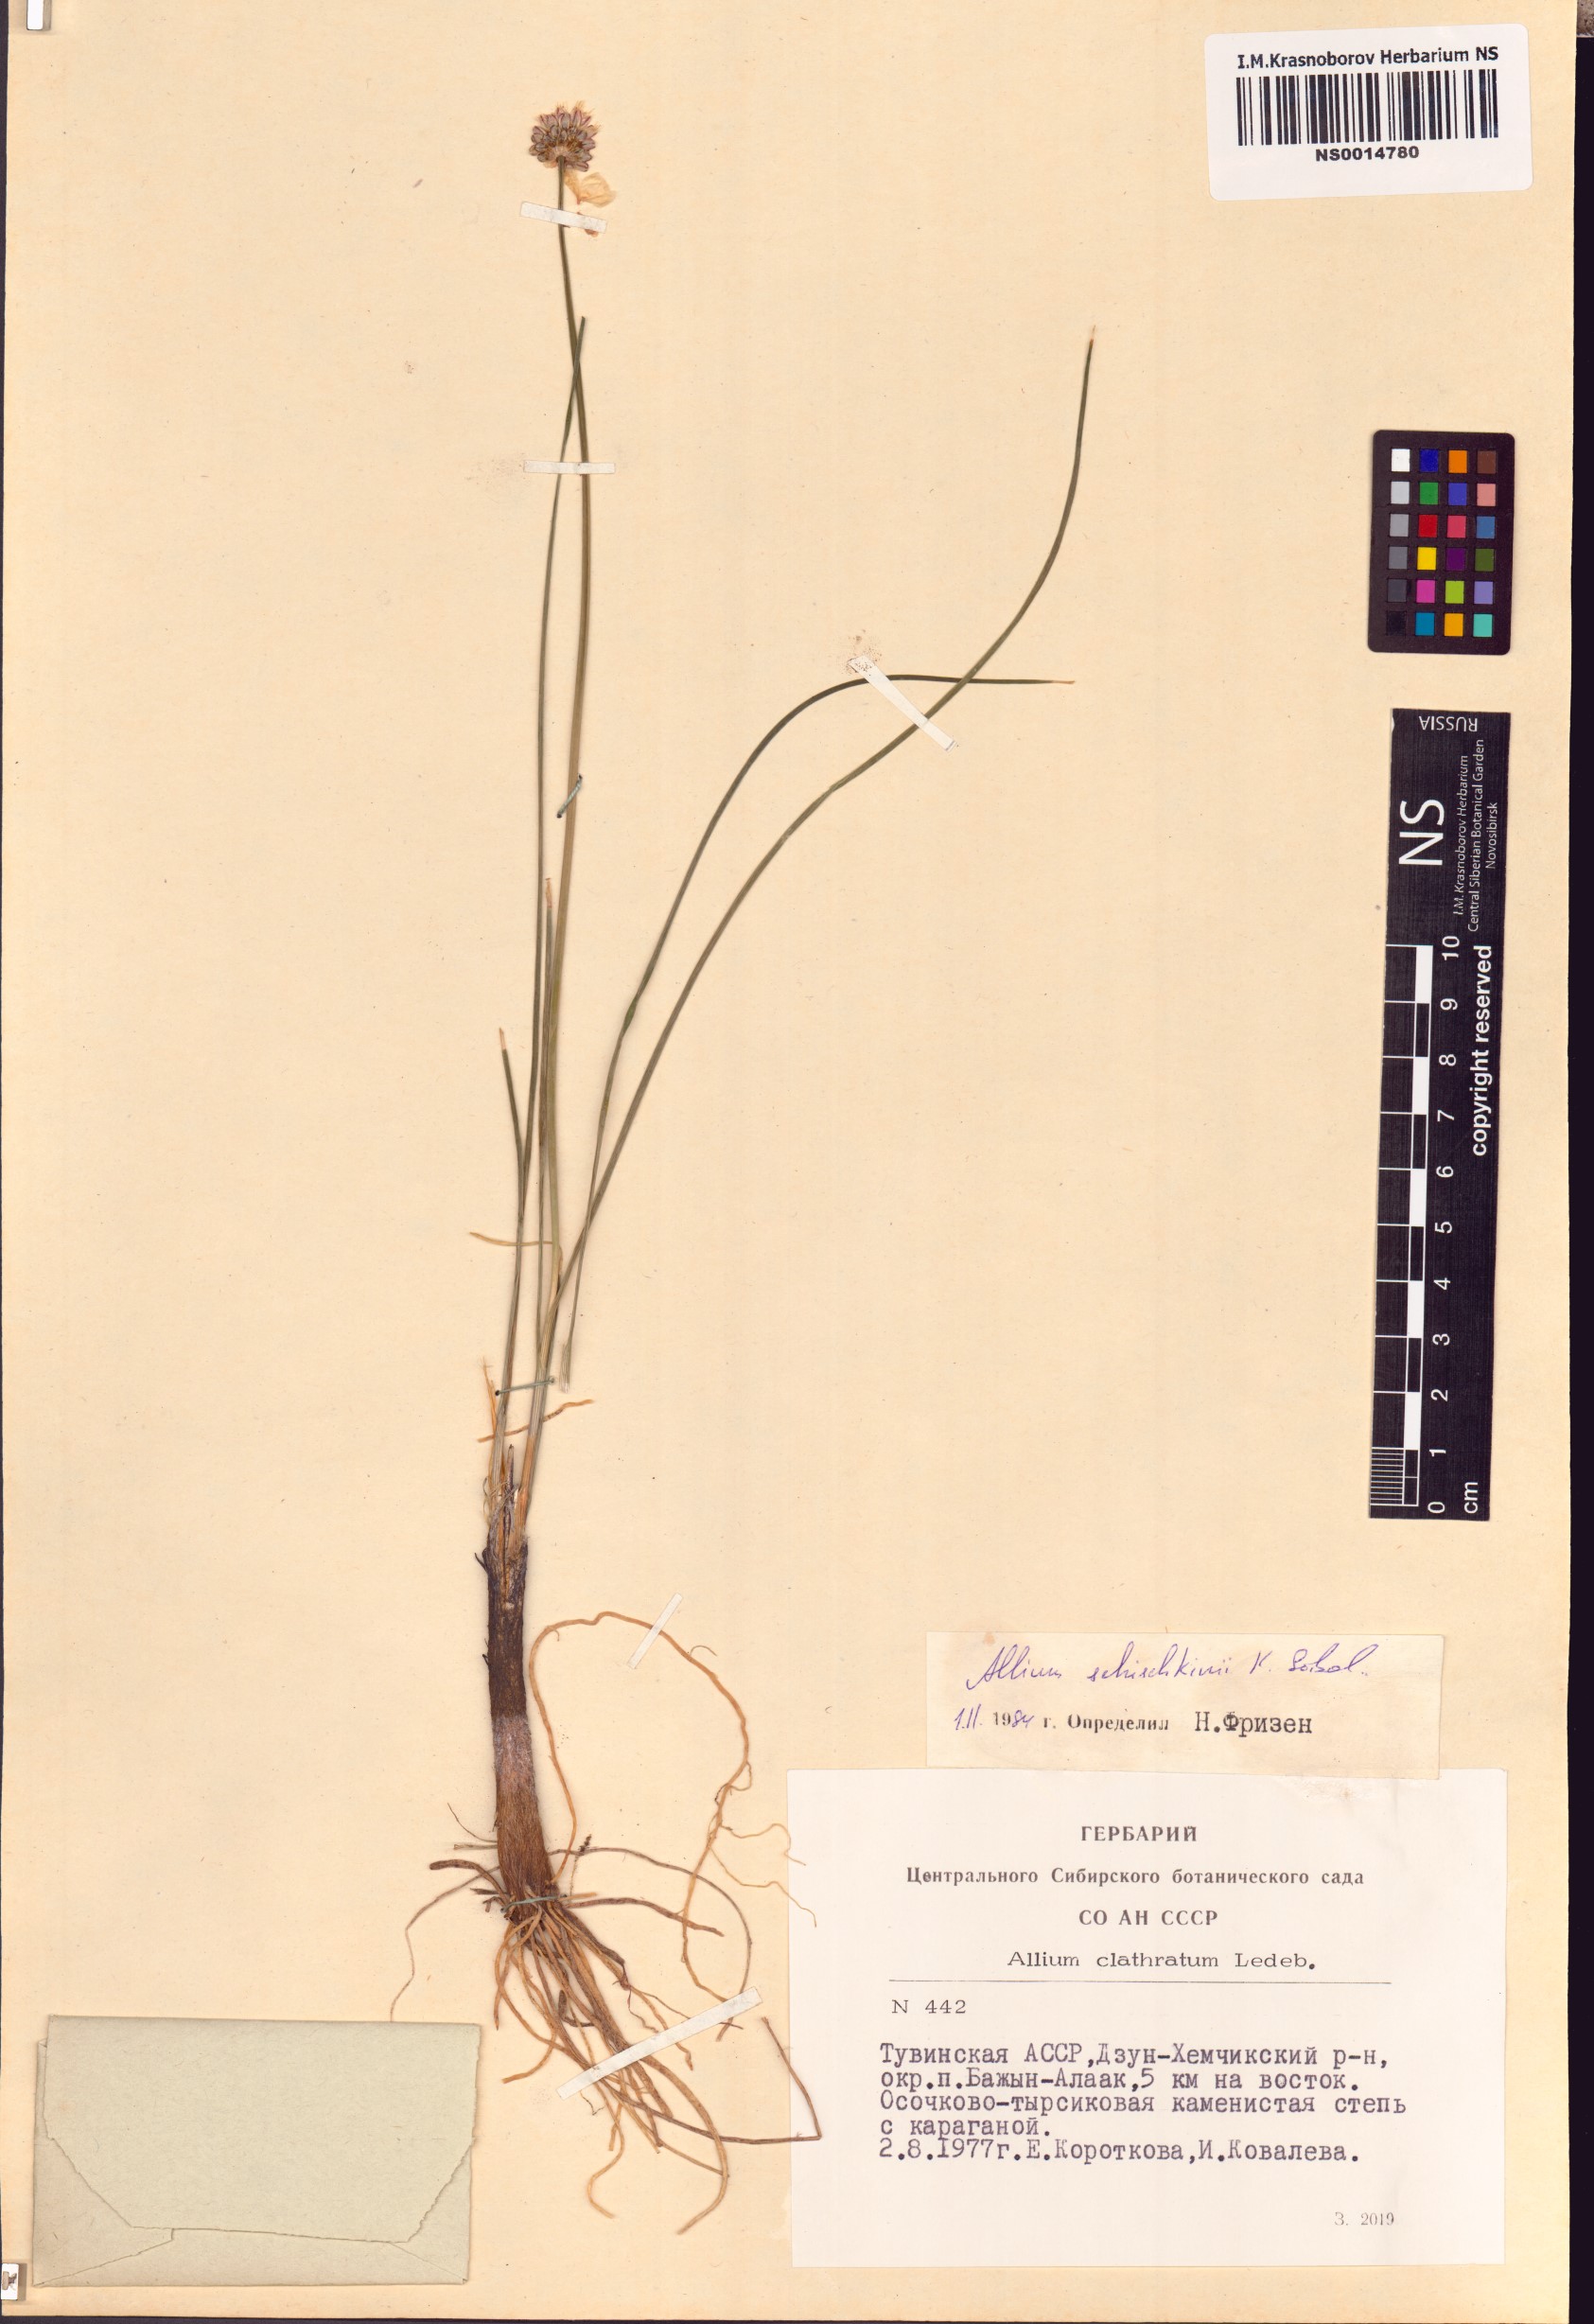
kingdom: Plantae
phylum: Tracheophyta
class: Liliopsida
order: Asparagales
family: Amaryllidaceae
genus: Allium
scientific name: Allium schischkinii
